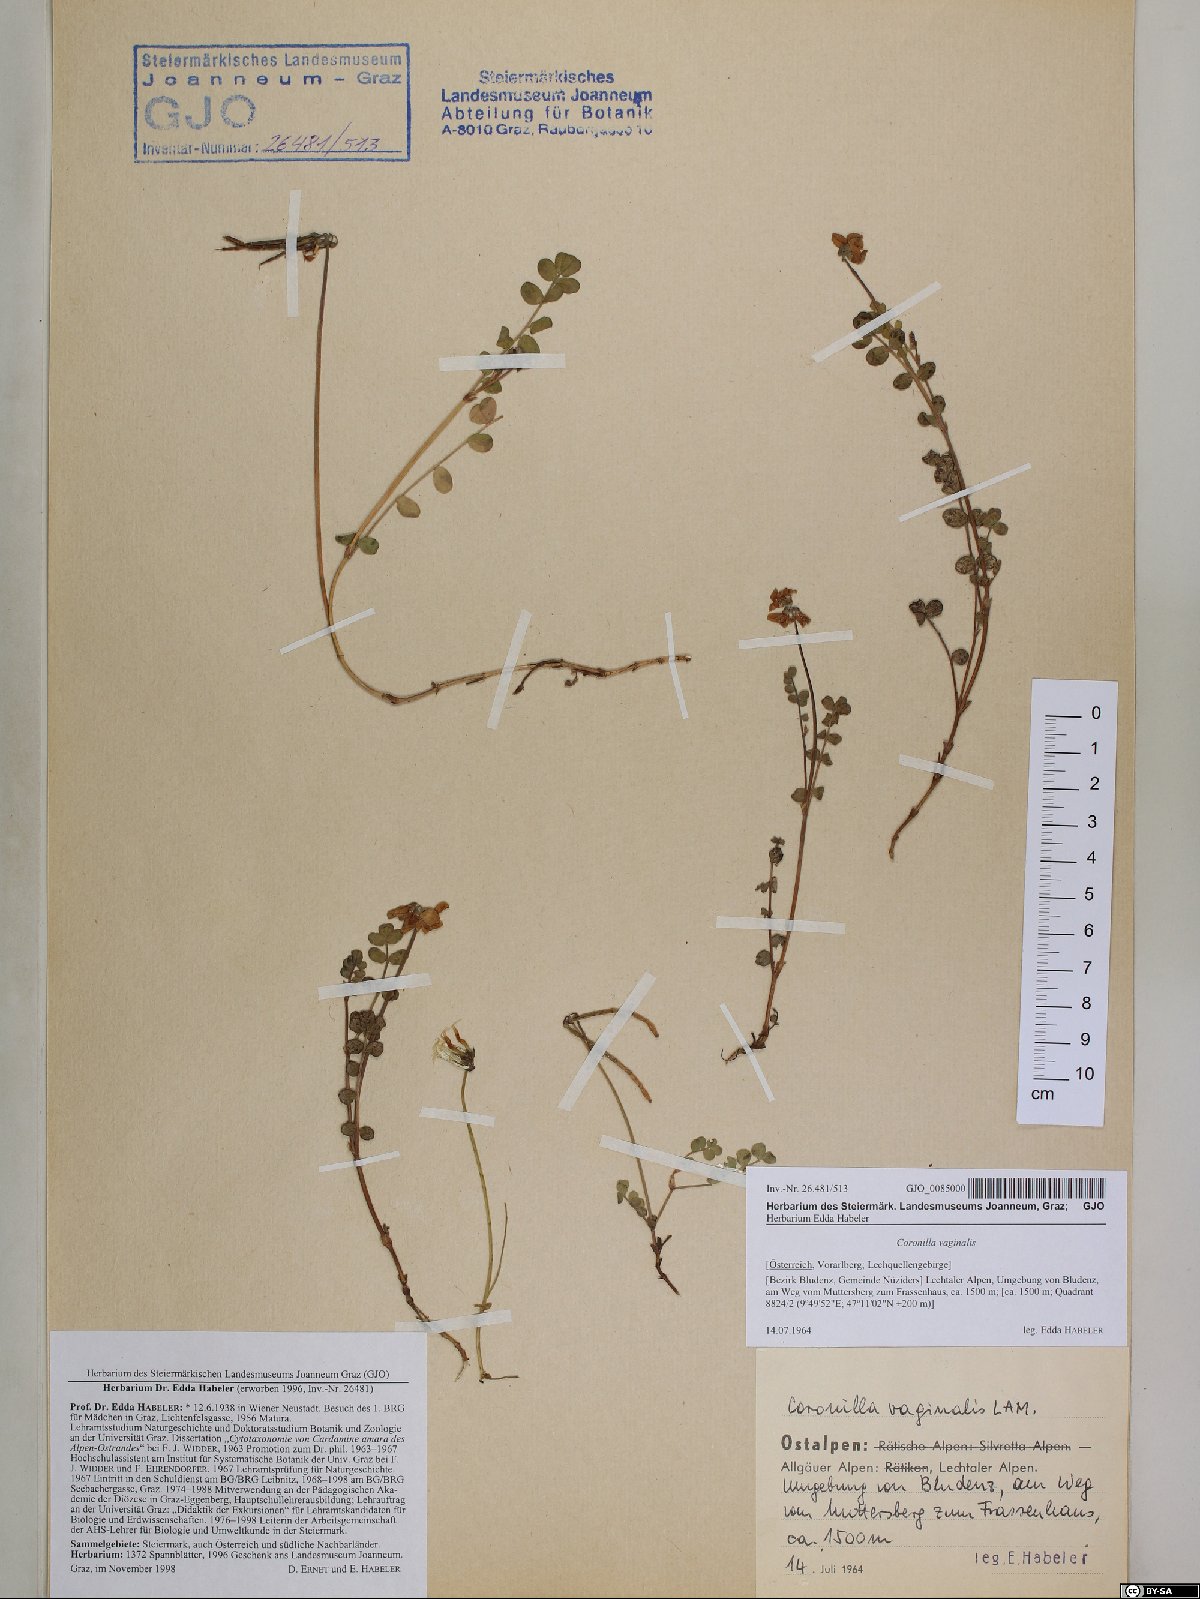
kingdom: Plantae
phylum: Tracheophyta
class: Magnoliopsida
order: Fabales
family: Fabaceae
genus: Coronilla
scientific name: Coronilla vaginalis
